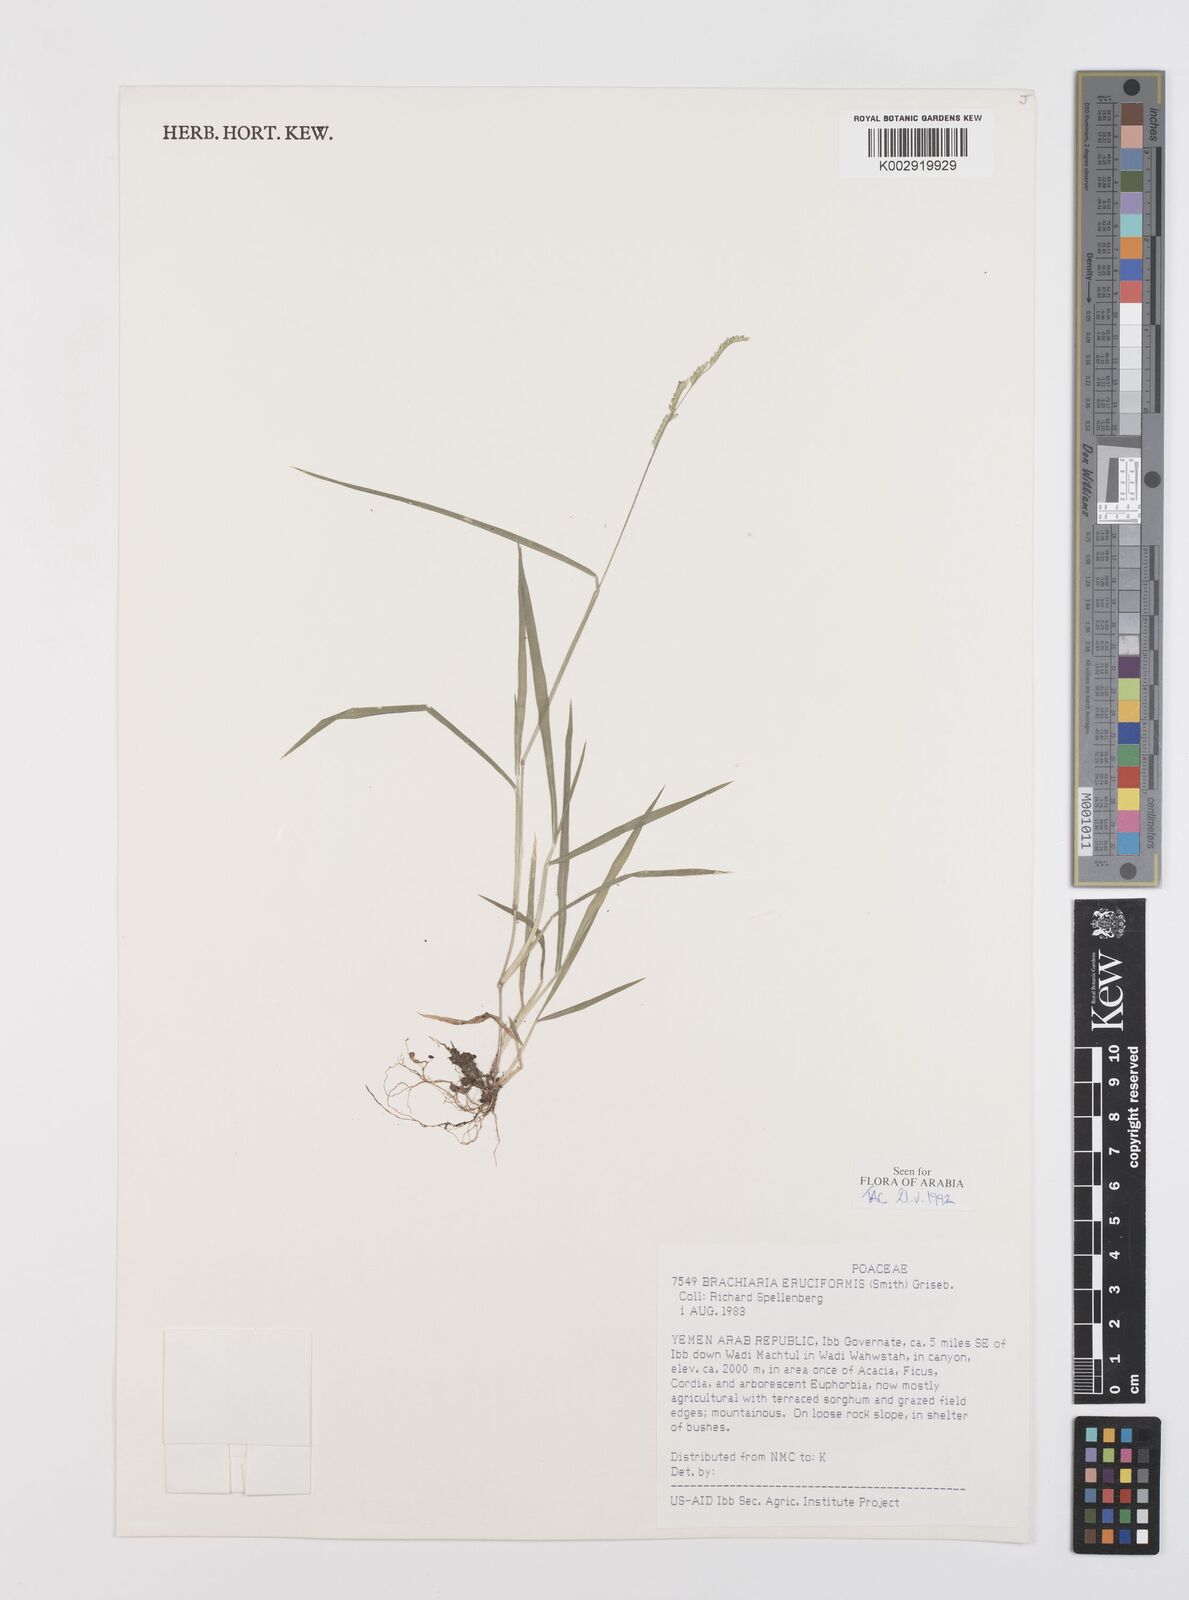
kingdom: Plantae
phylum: Tracheophyta
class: Liliopsida
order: Poales
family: Poaceae
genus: Moorochloa
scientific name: Moorochloa eruciformis
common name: Sweet signalgrass
